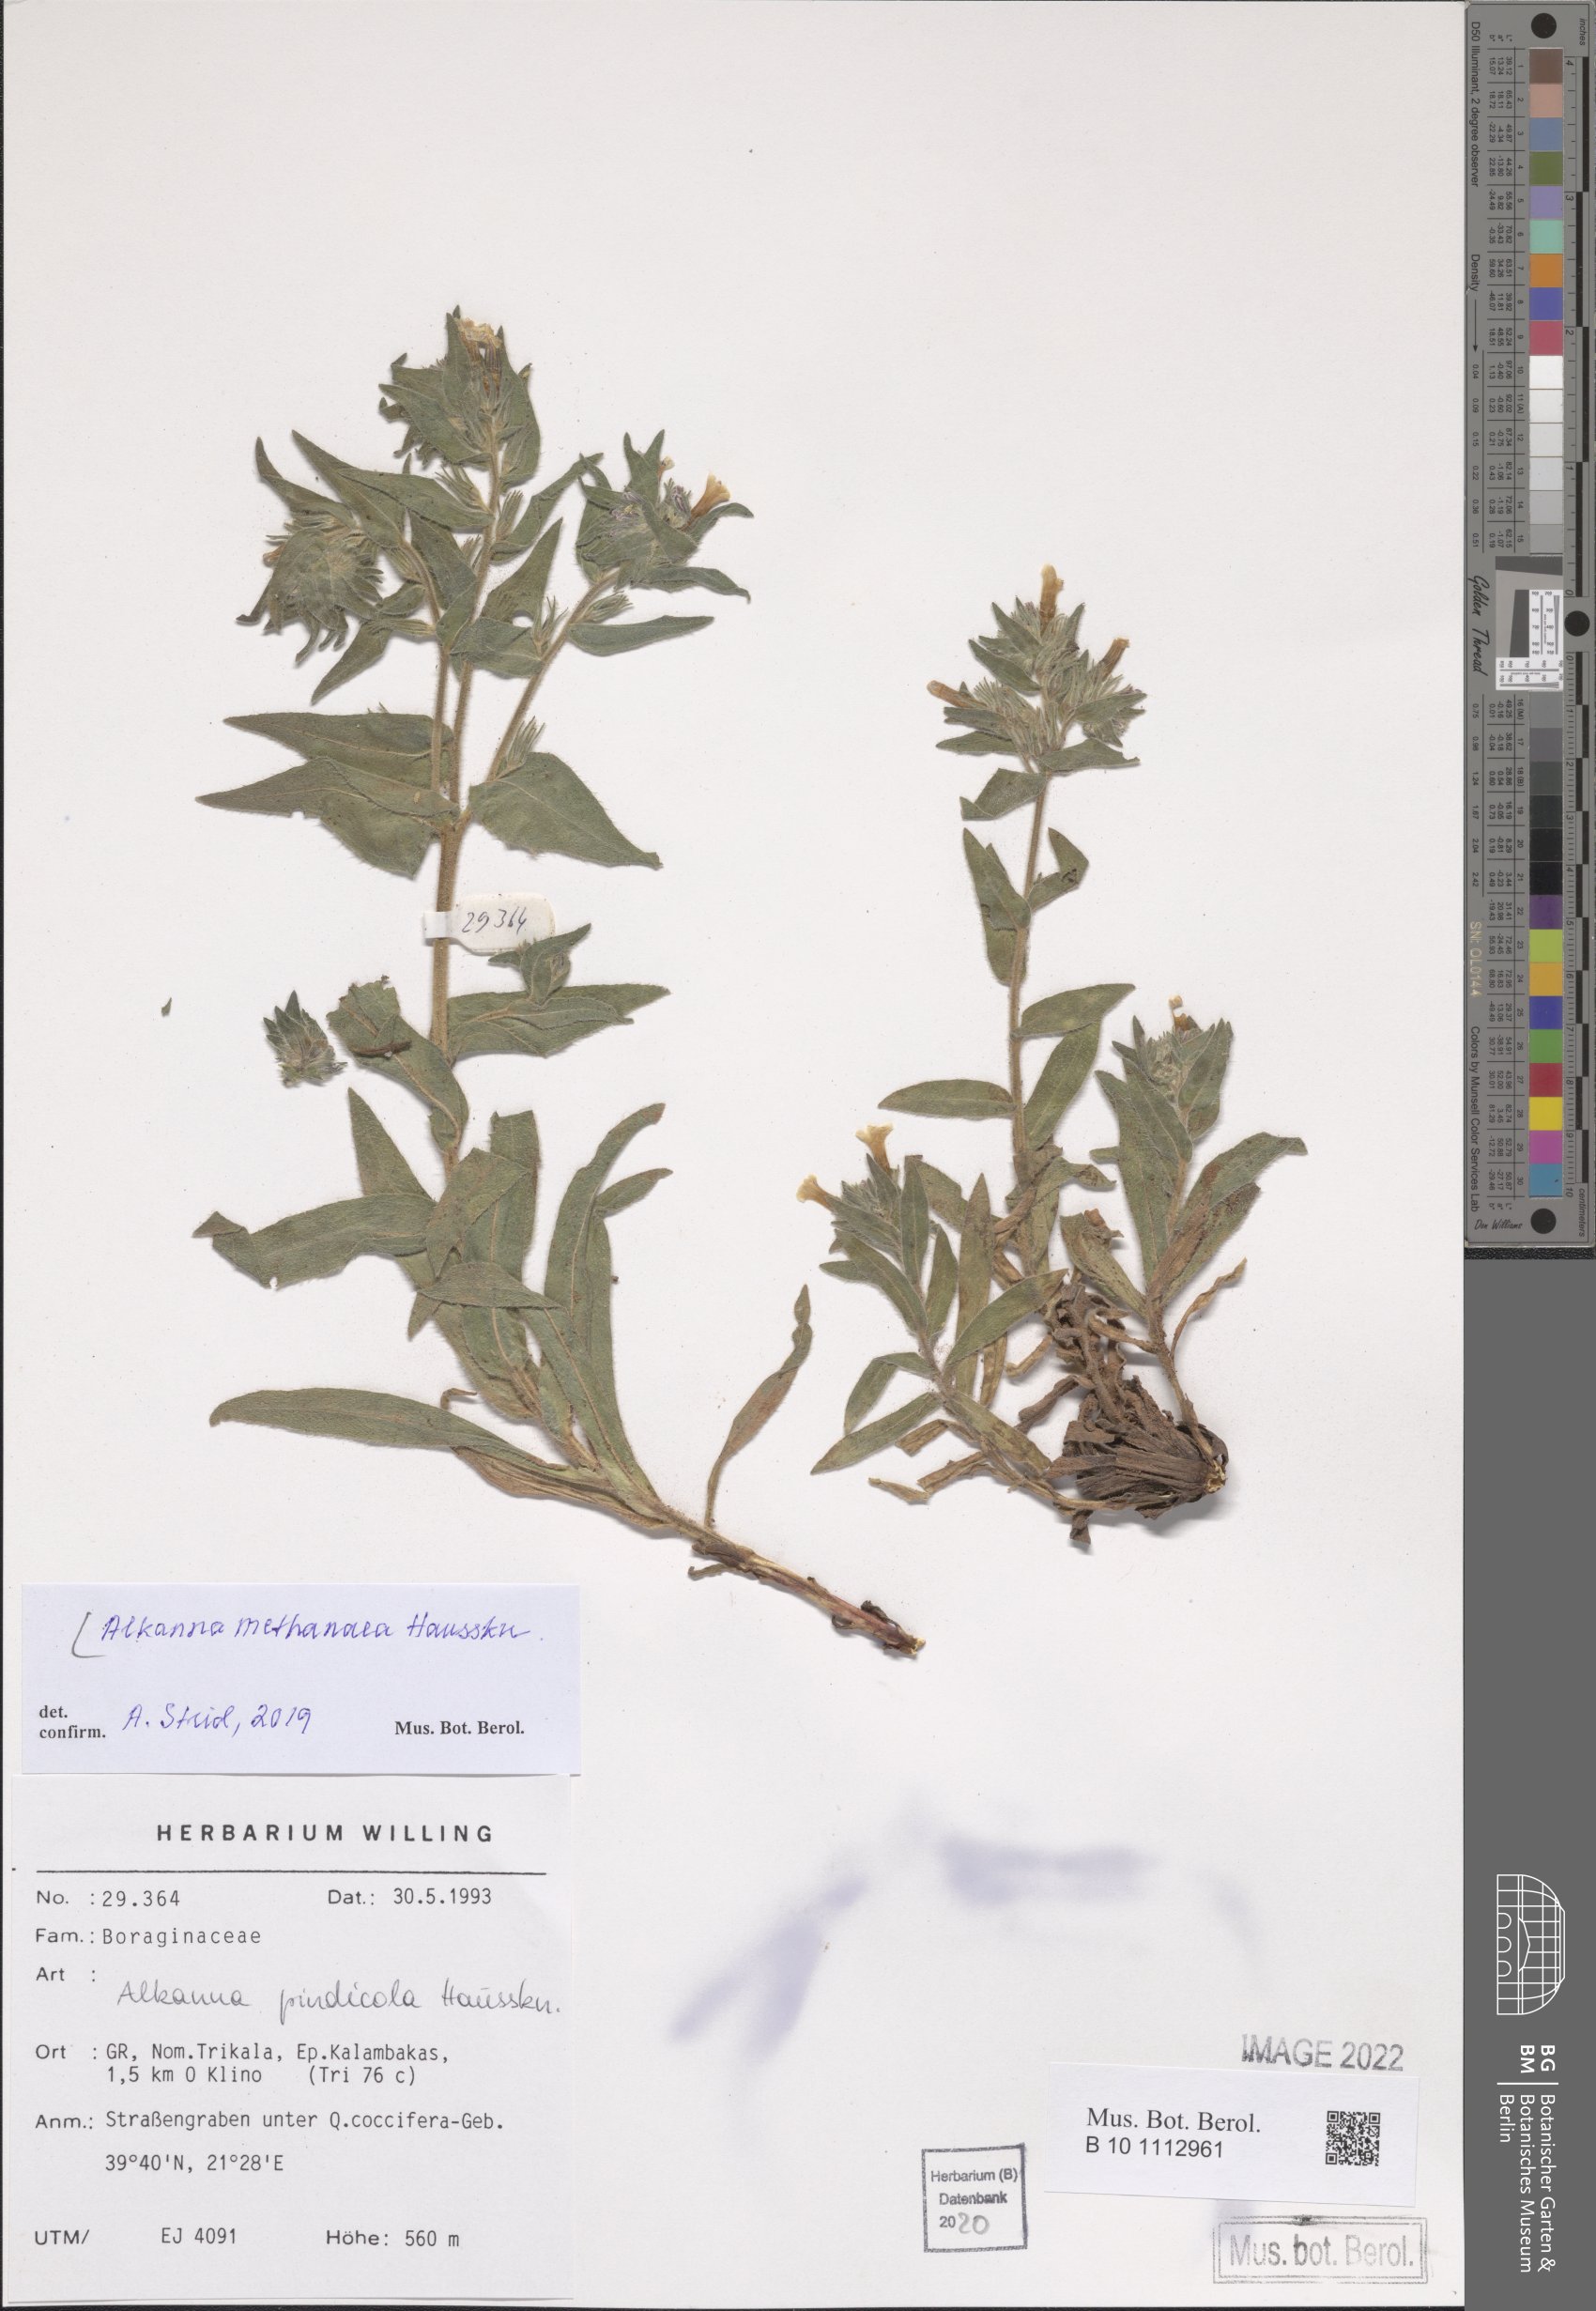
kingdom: Plantae
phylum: Tracheophyta
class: Magnoliopsida
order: Boraginales
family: Boraginaceae
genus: Alkanna
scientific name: Alkanna methanaea
